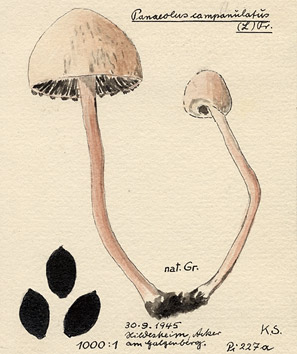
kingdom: Fungi
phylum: Basidiomycota
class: Agaricomycetes
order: Agaricales
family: Bolbitiaceae
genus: Panaeolus
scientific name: Panaeolus papilionaceus
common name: Petticoat mottlegill
